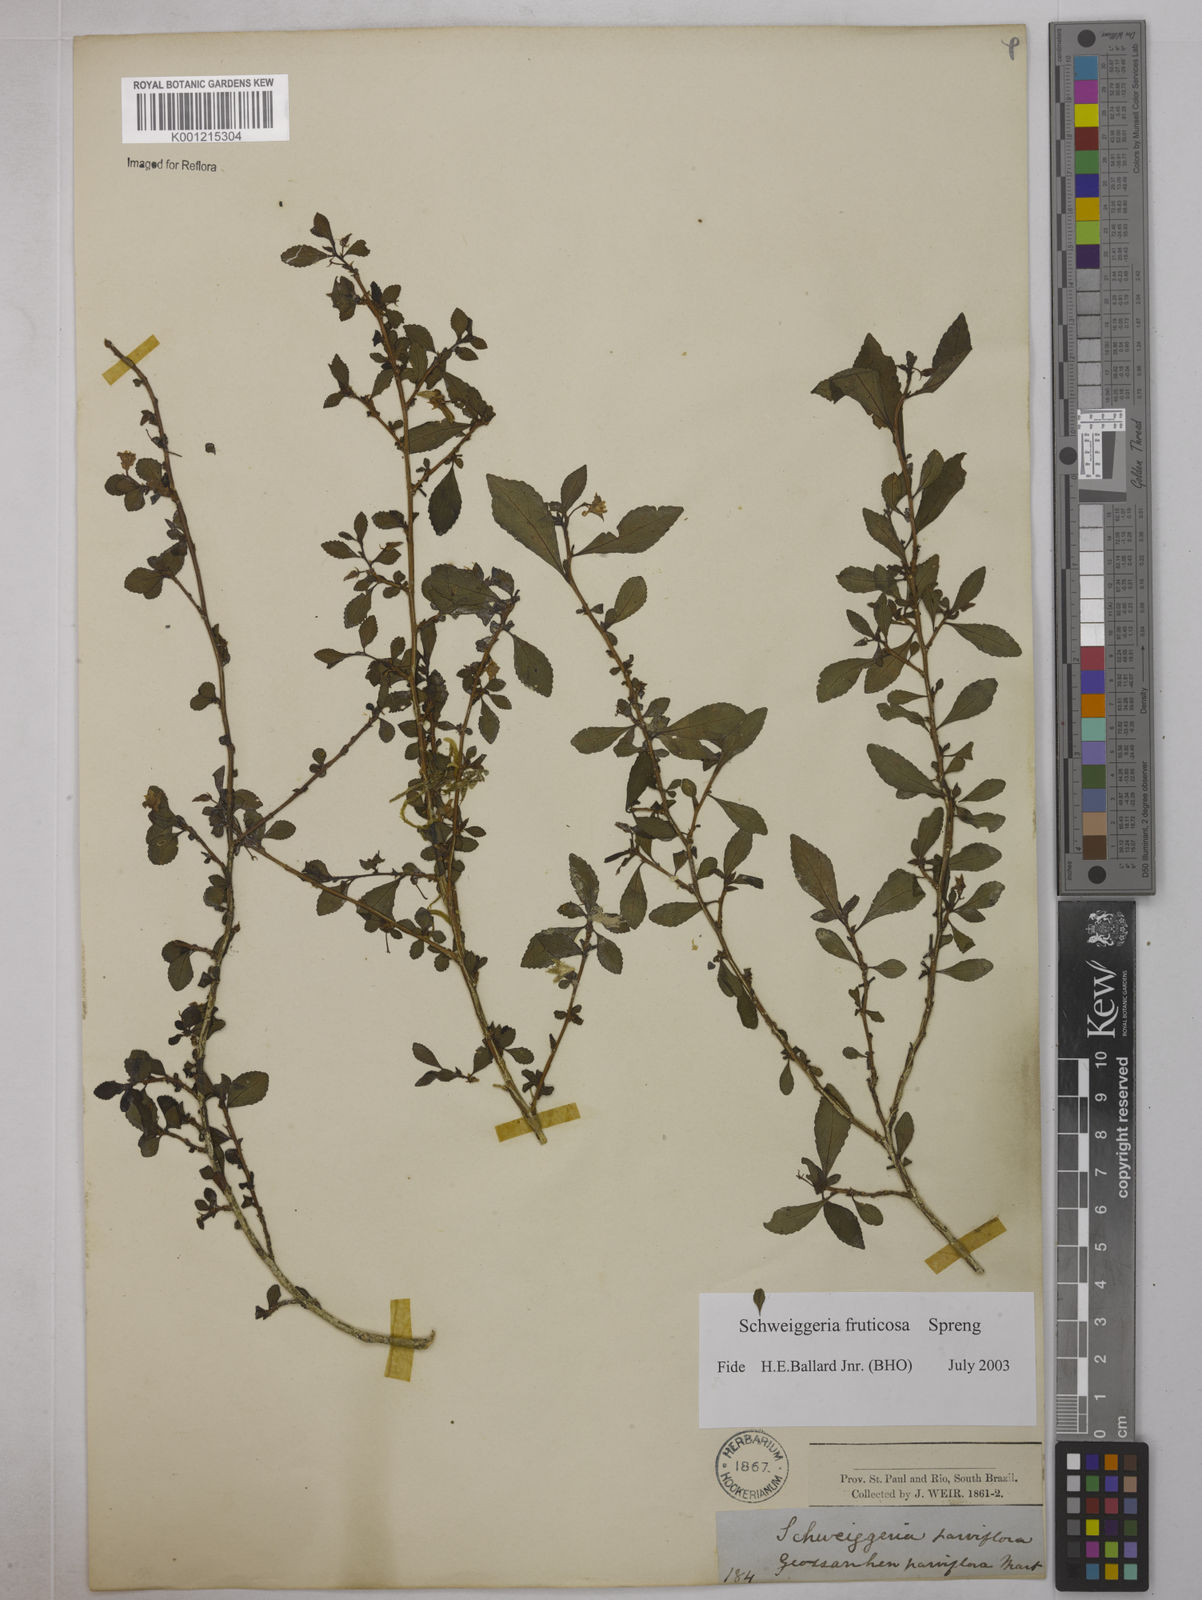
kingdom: Plantae
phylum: Tracheophyta
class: Magnoliopsida
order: Malpighiales
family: Violaceae
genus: Schweiggeria
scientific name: Schweiggeria fruticosa
